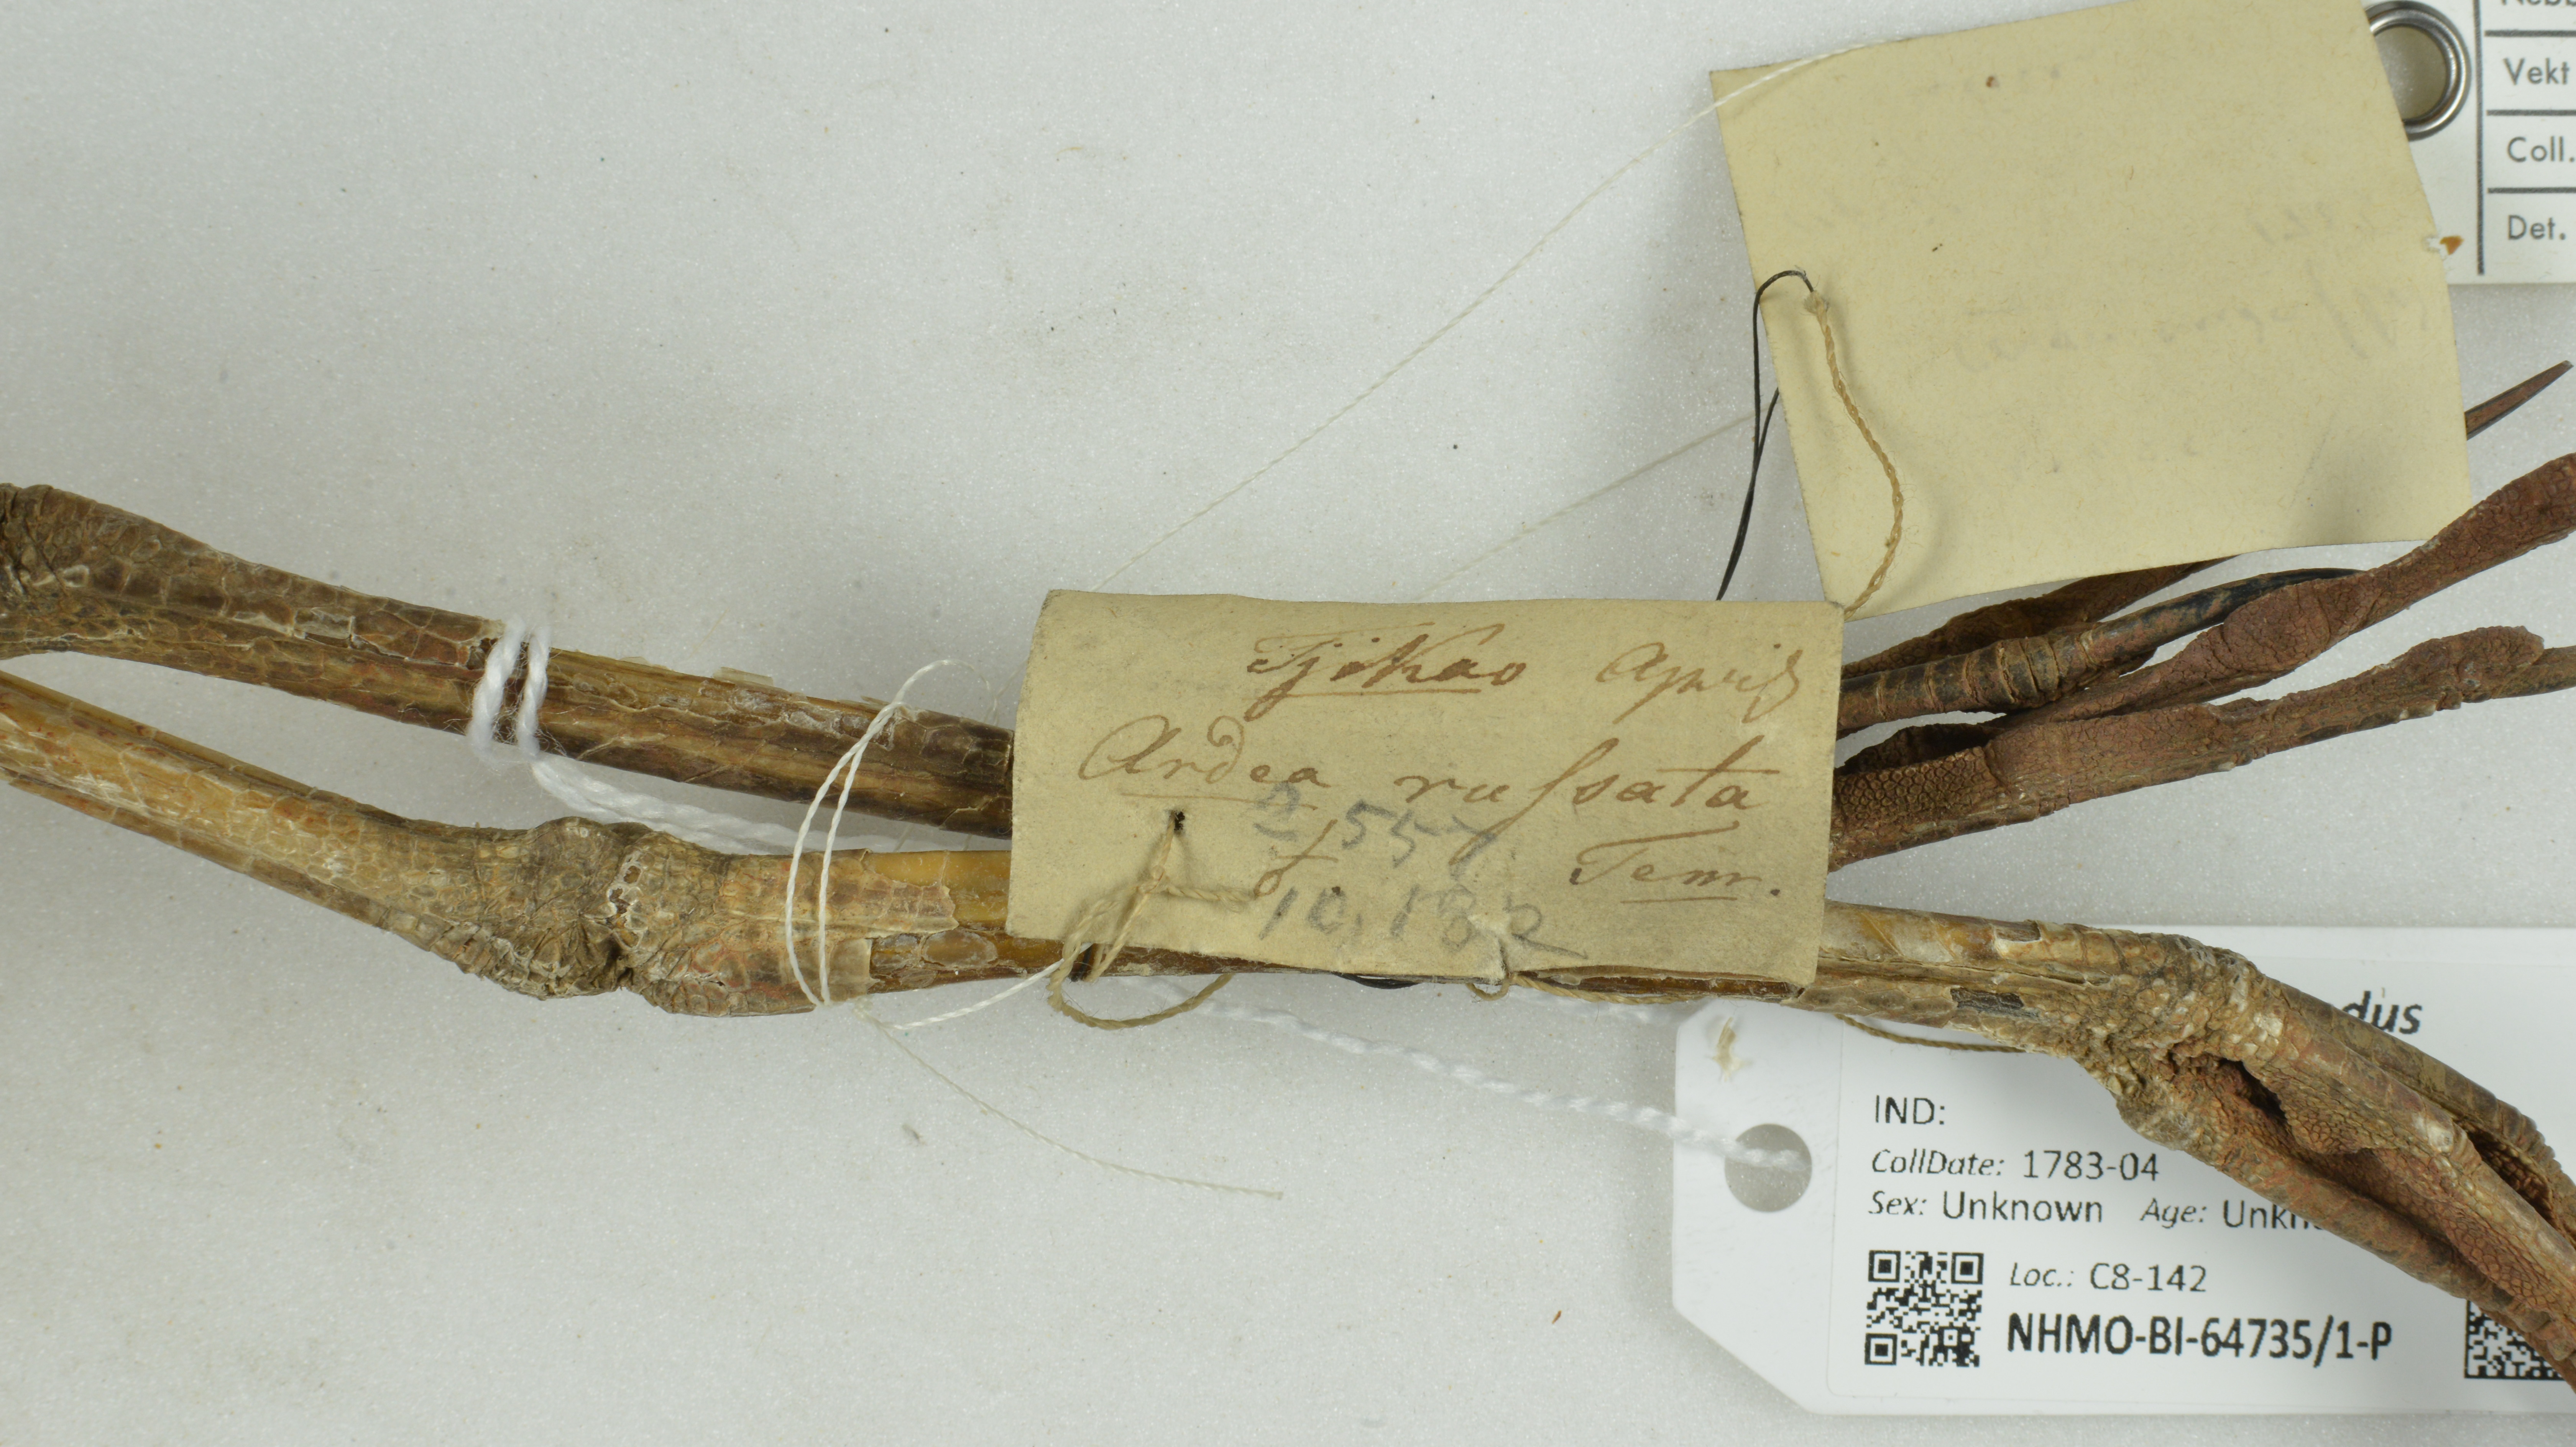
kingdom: Animalia
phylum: Chordata
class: Aves
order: Pelecaniformes
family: Ardeidae
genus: Bubulcus
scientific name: Bubulcus coromandus
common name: Eastern cattle egret
